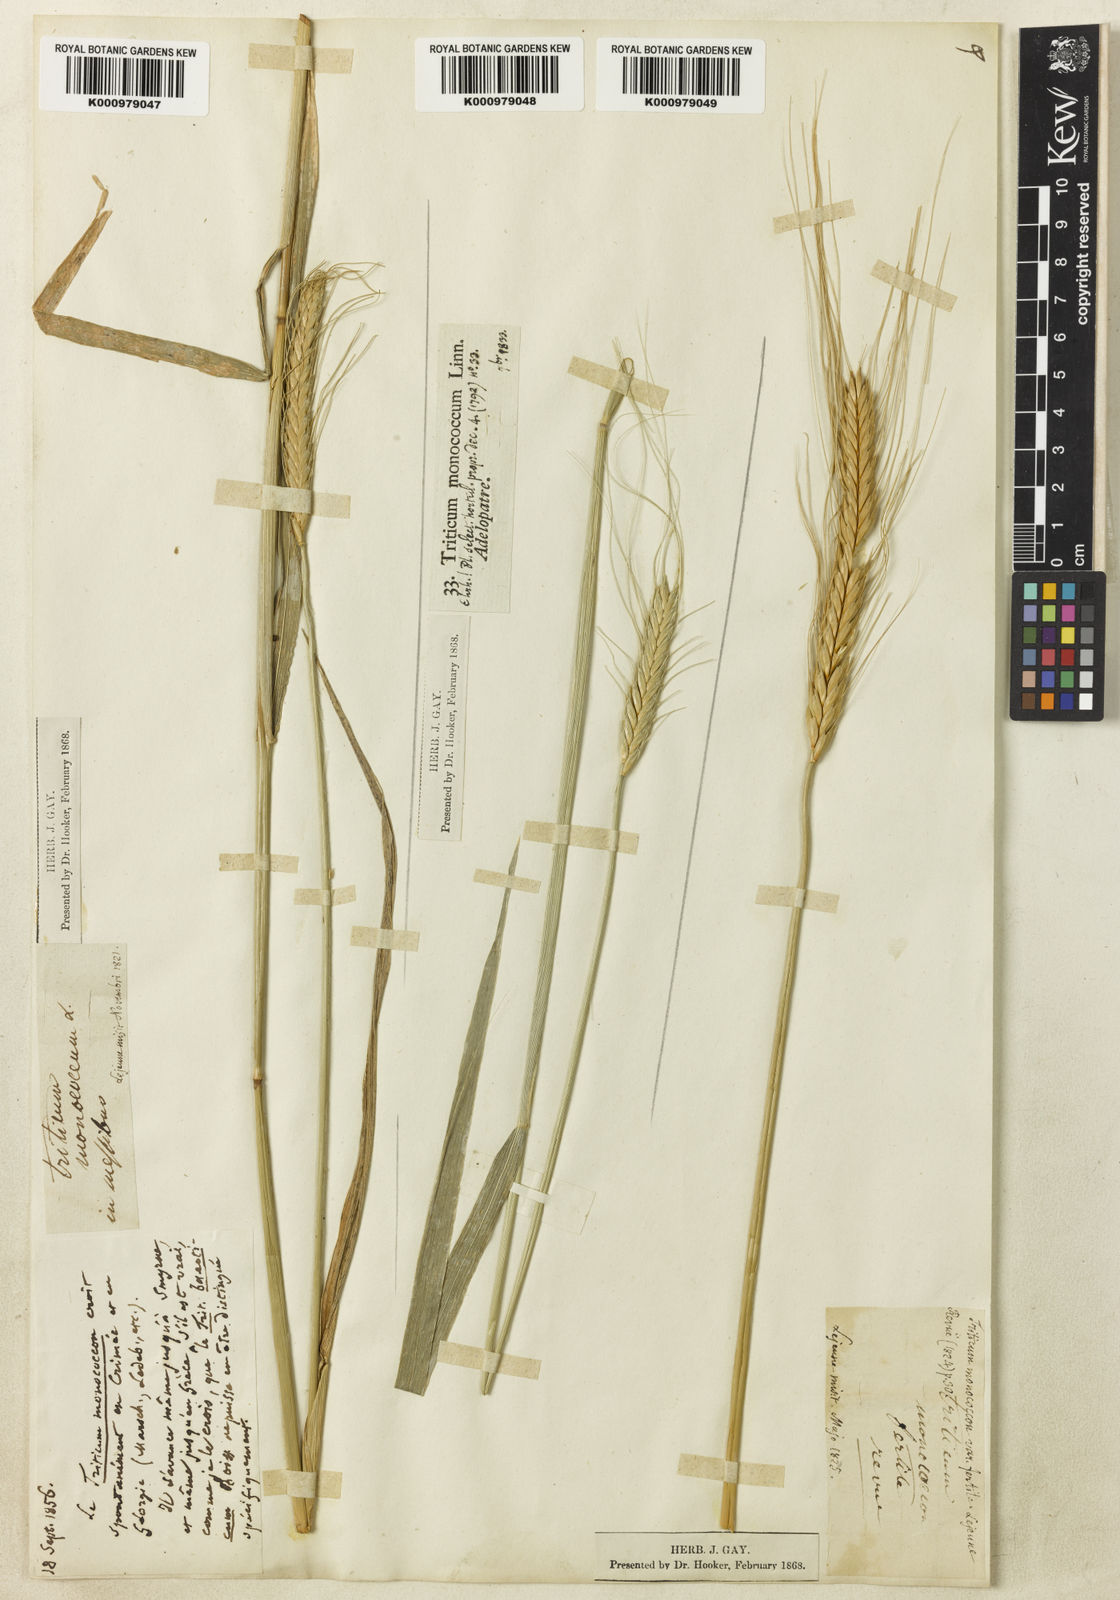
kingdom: Plantae
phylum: Tracheophyta
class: Liliopsida
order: Poales
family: Poaceae
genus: Triticum
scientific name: Triticum monococcum
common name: Einkorn
